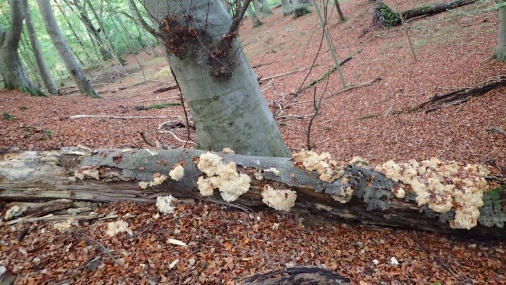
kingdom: Fungi
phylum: Basidiomycota
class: Agaricomycetes
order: Russulales
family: Hericiaceae
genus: Hericium
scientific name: Hericium coralloides
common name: koralpigsvamp
